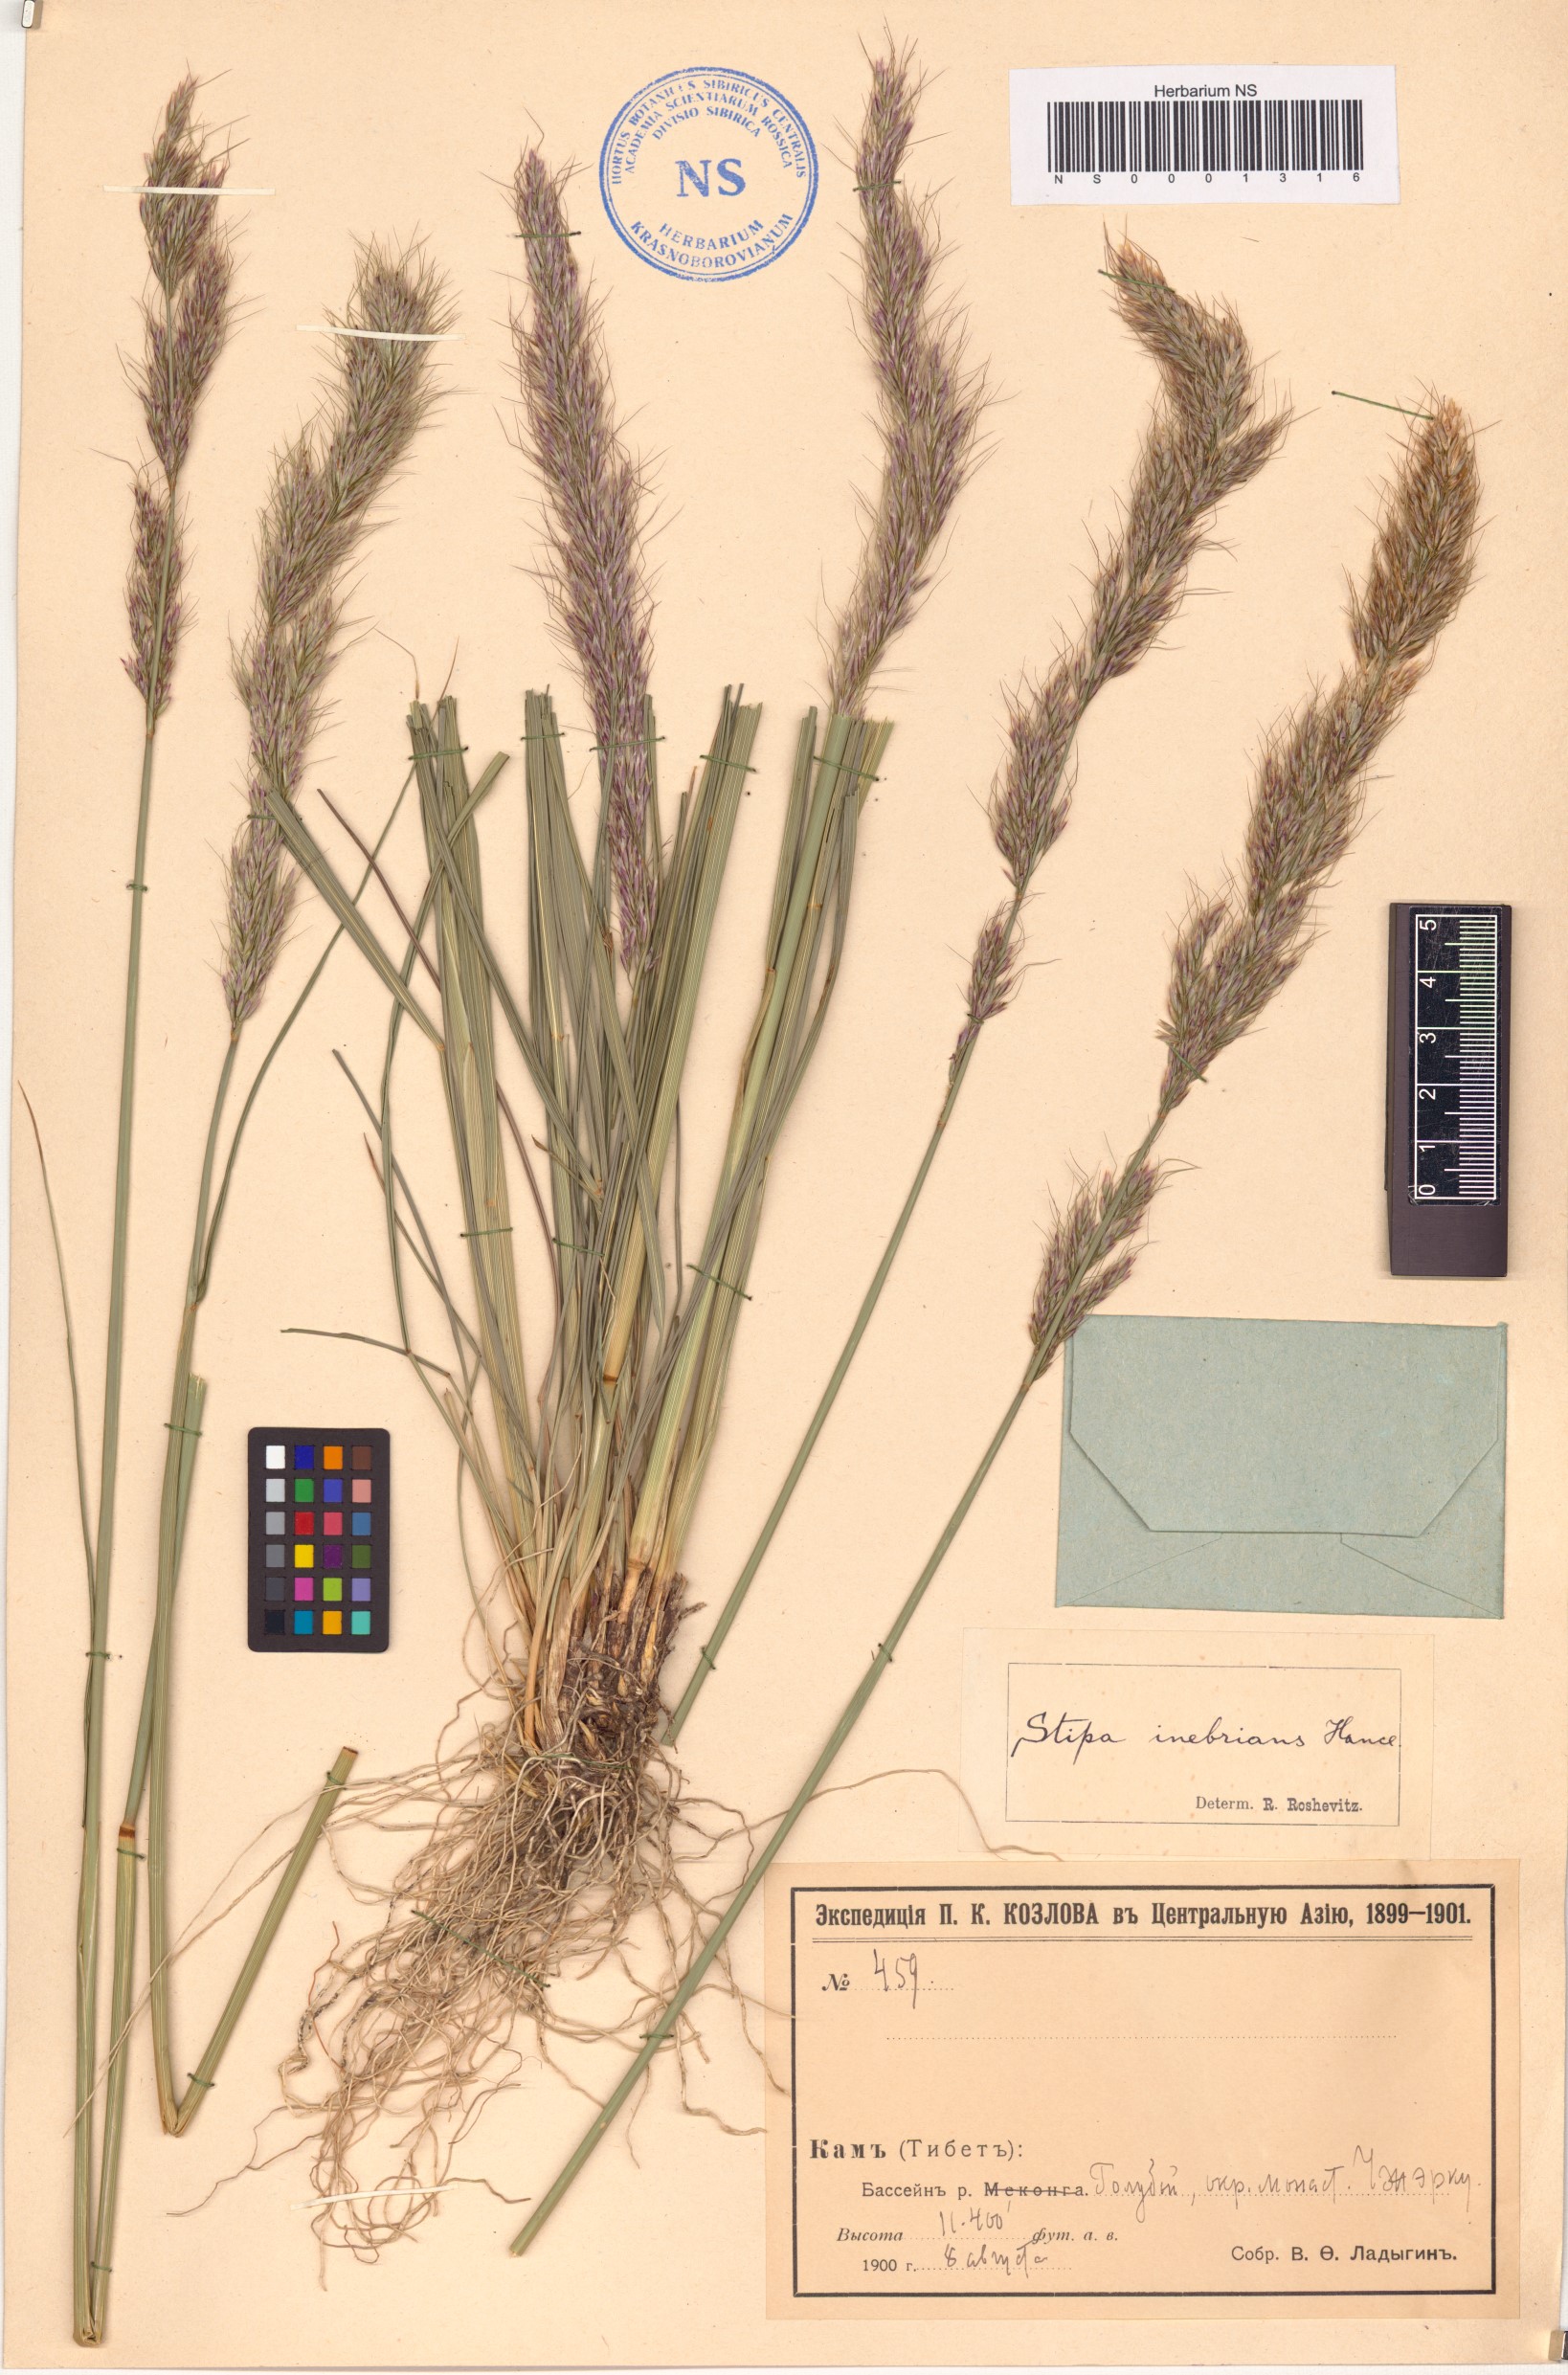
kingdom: Plantae
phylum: Tracheophyta
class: Liliopsida
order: Poales
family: Poaceae
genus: Achnatherum
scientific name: Achnatherum inebrians
